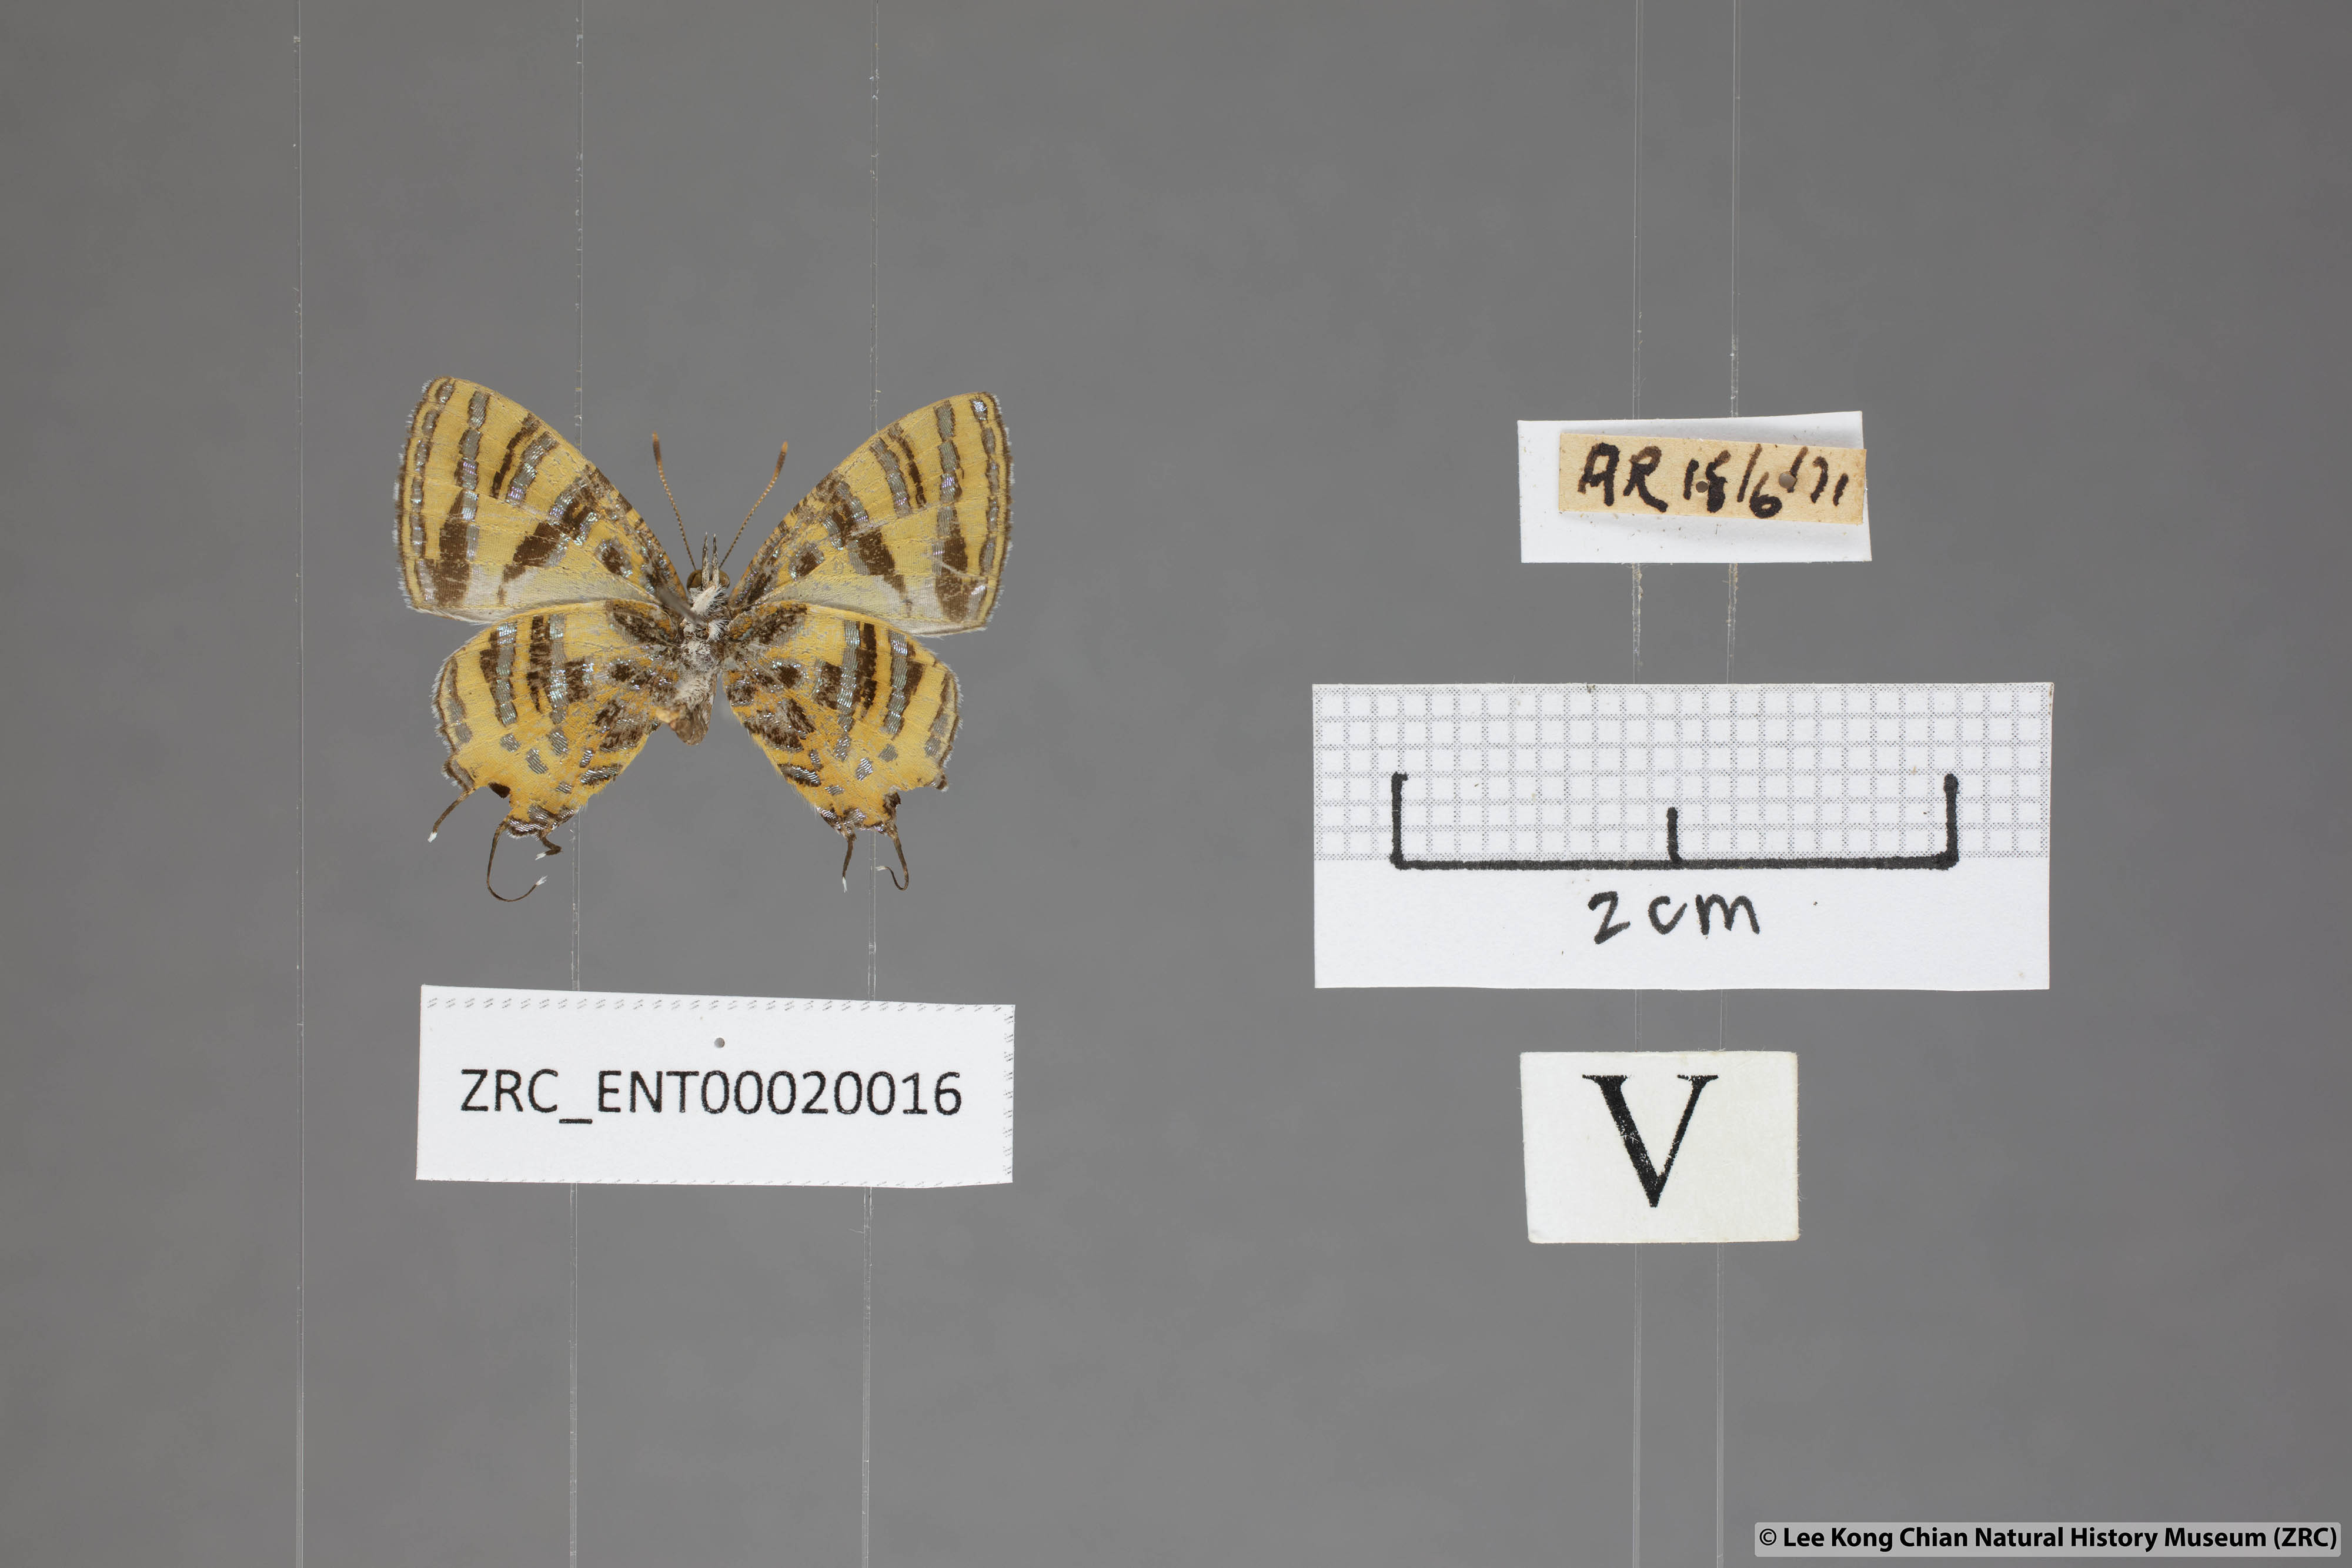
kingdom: Animalia
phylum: Arthropoda
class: Insecta
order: Lepidoptera
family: Lycaenidae
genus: Catapaecilma
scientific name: Catapaecilma subochrea
